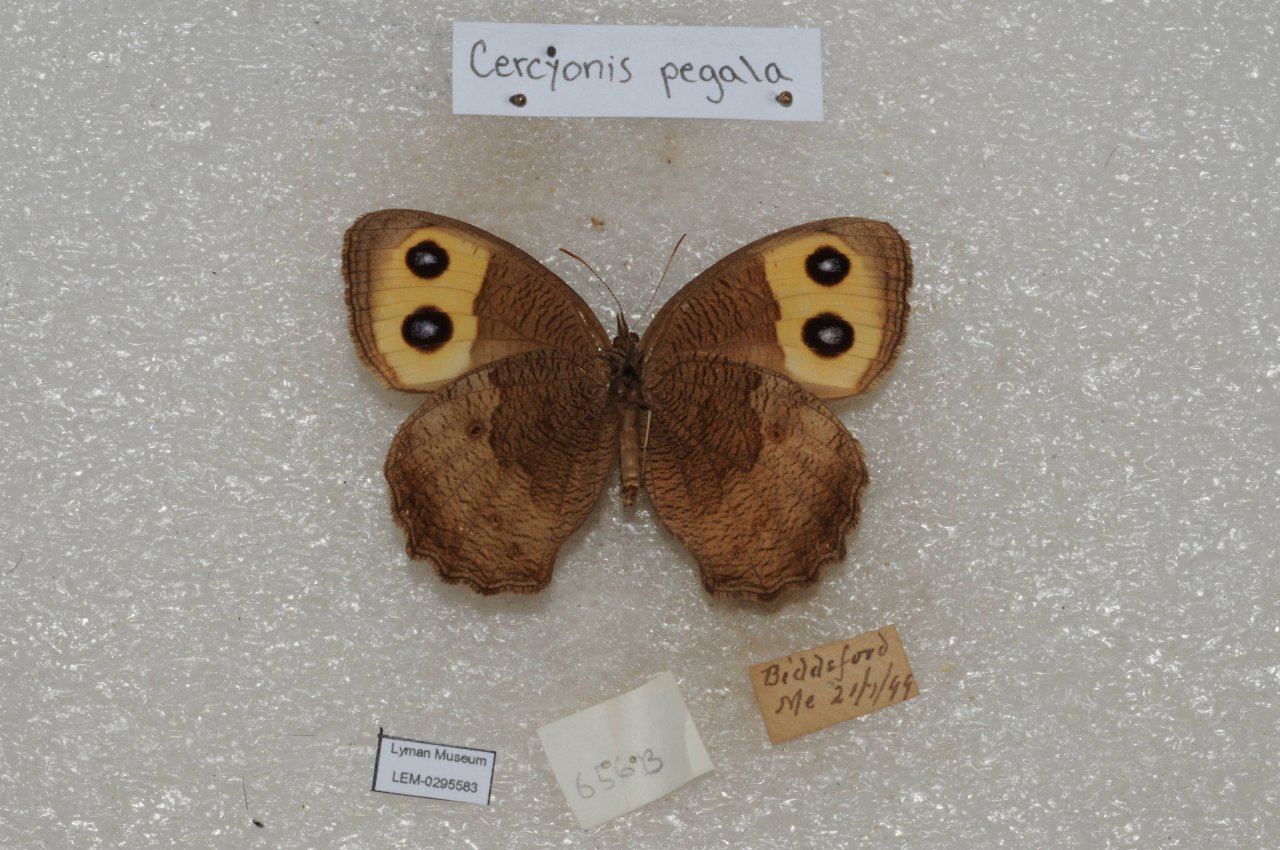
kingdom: Animalia
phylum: Arthropoda
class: Insecta
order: Lepidoptera
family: Nymphalidae
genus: Cercyonis
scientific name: Cercyonis pegala
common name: Common Wood-Nymph
